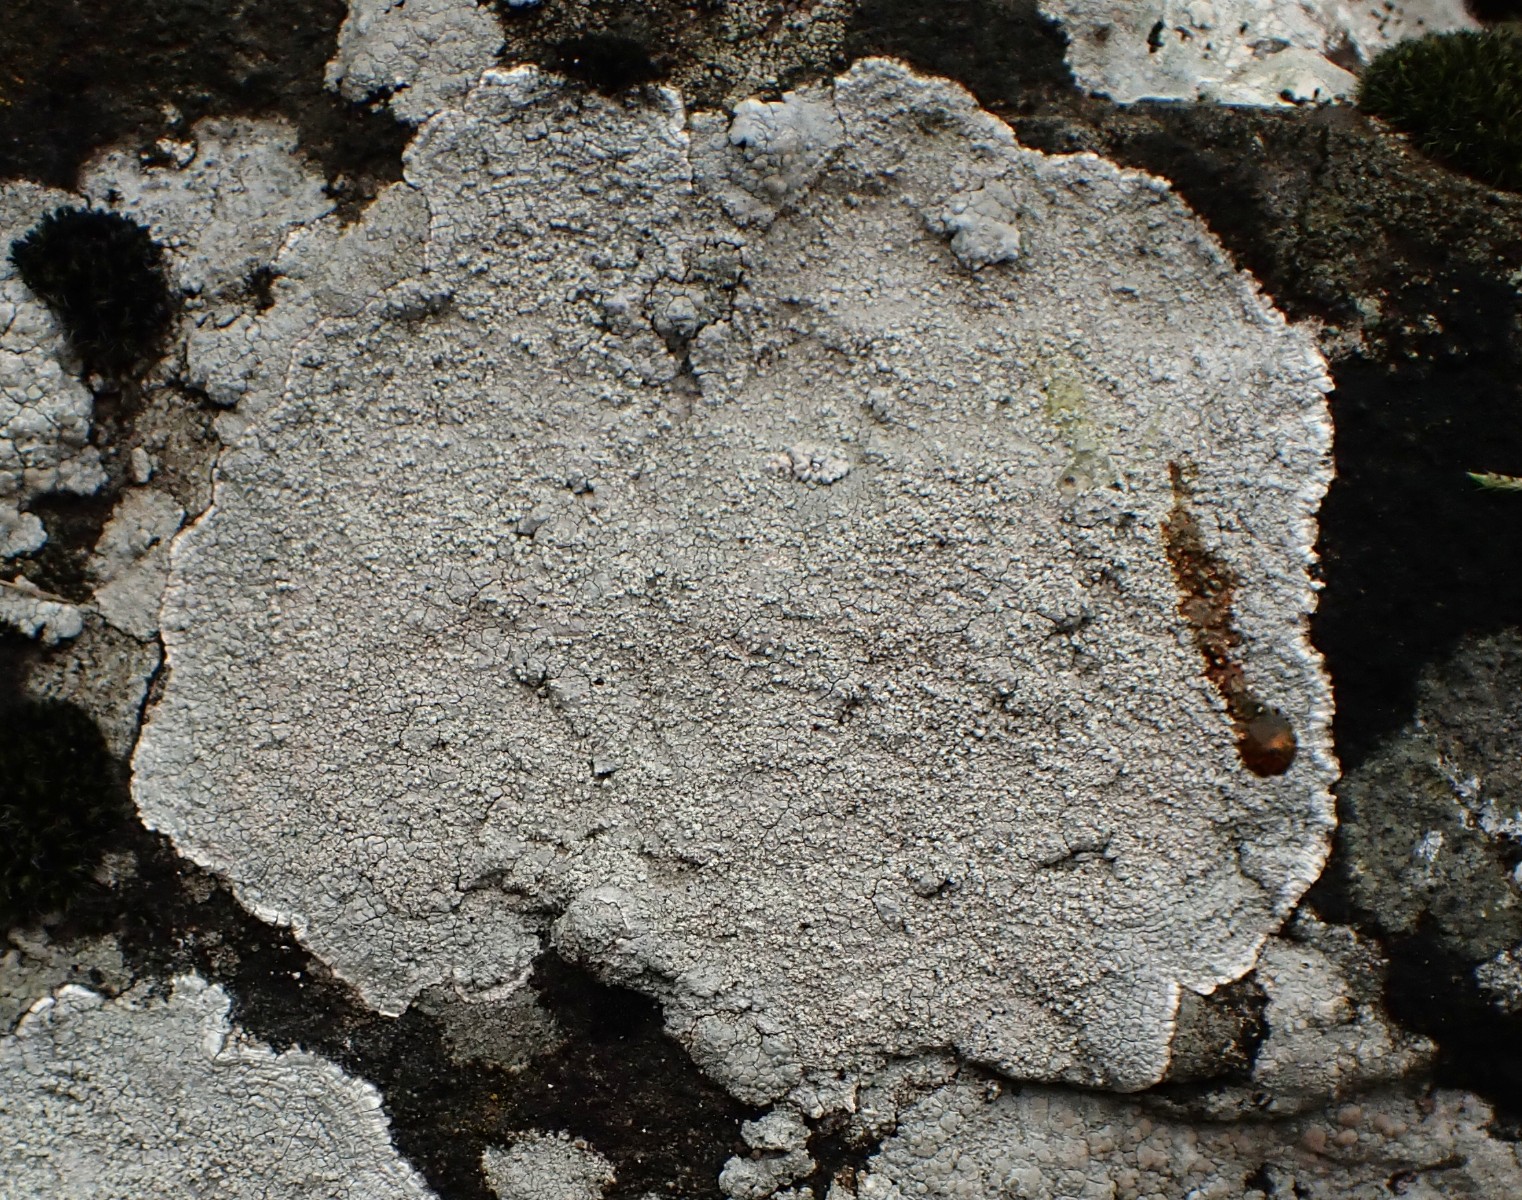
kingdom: Fungi
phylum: Ascomycota
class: Lecanoromycetes
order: Pertusariales
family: Pertusariaceae
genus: Lepra
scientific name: Lepra aspergilla
